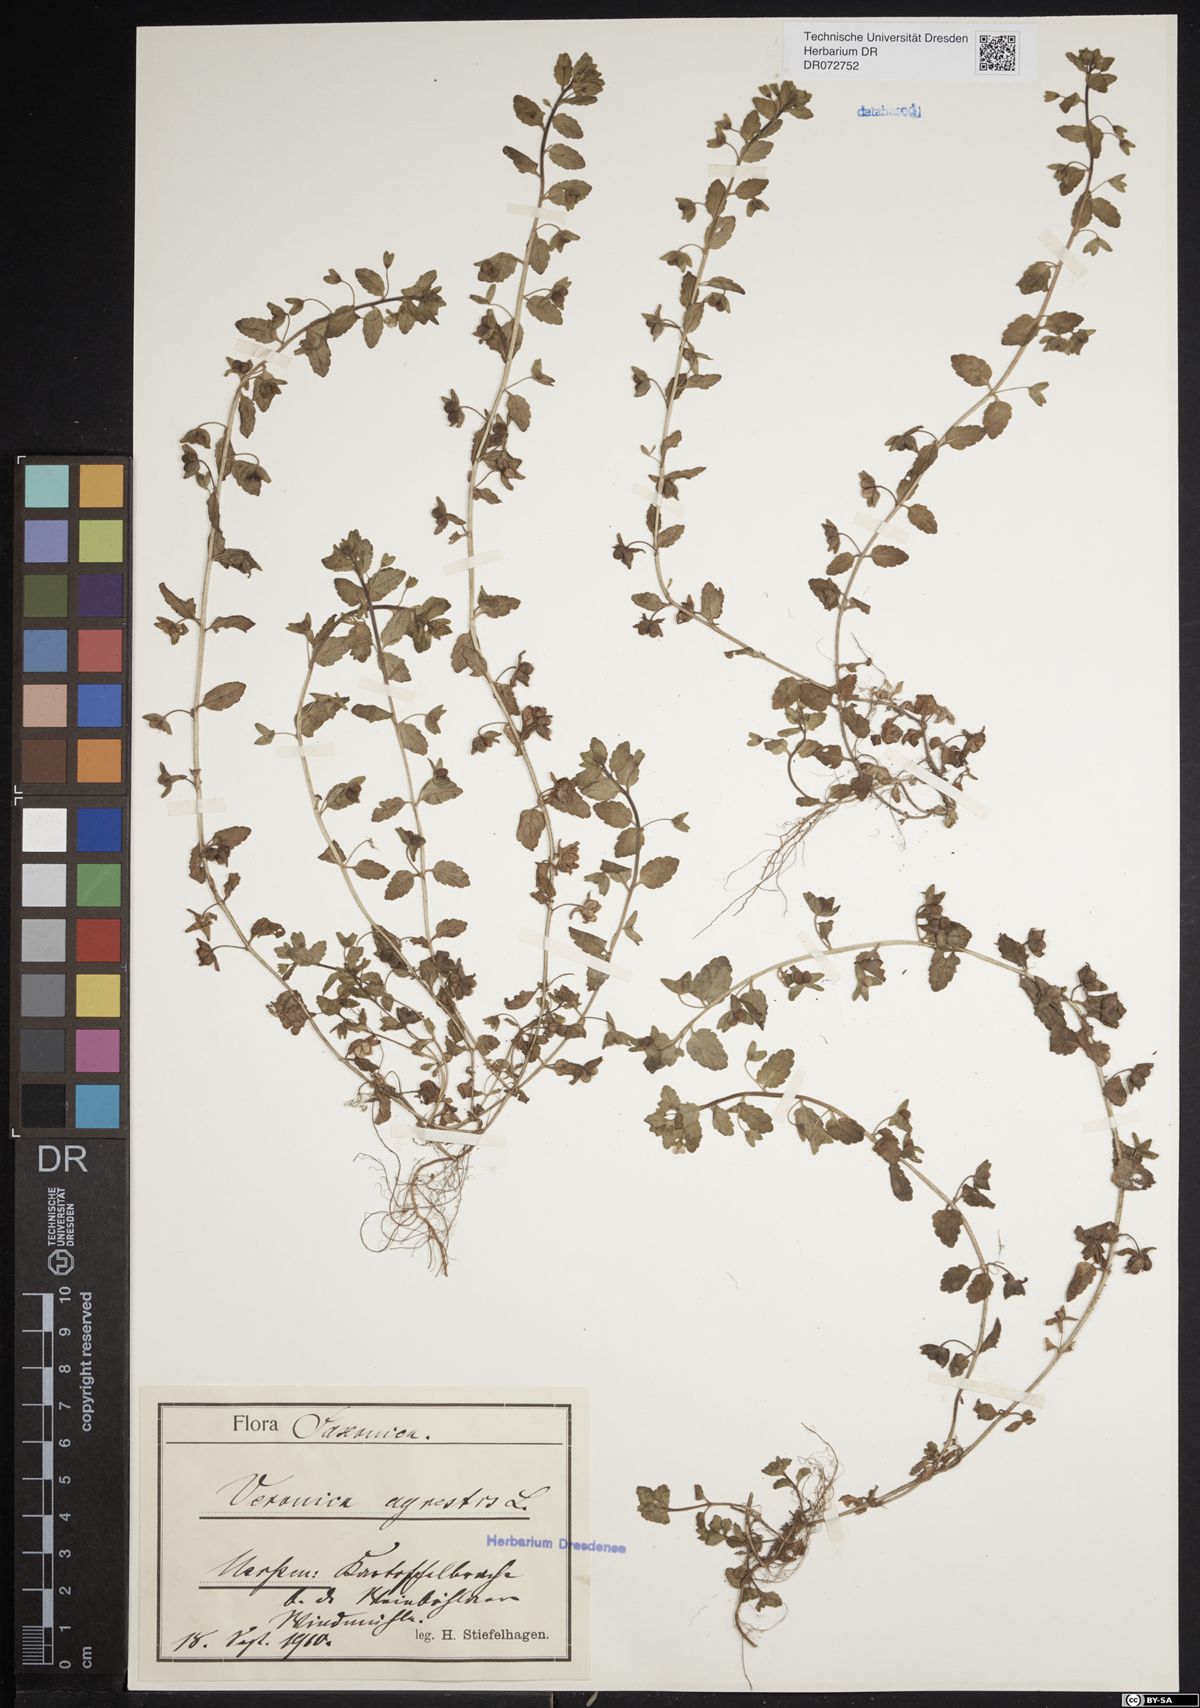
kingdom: Plantae
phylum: Tracheophyta
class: Magnoliopsida
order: Lamiales
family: Plantaginaceae
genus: Veronica
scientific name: Veronica agrestis
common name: Green field-speedwell
